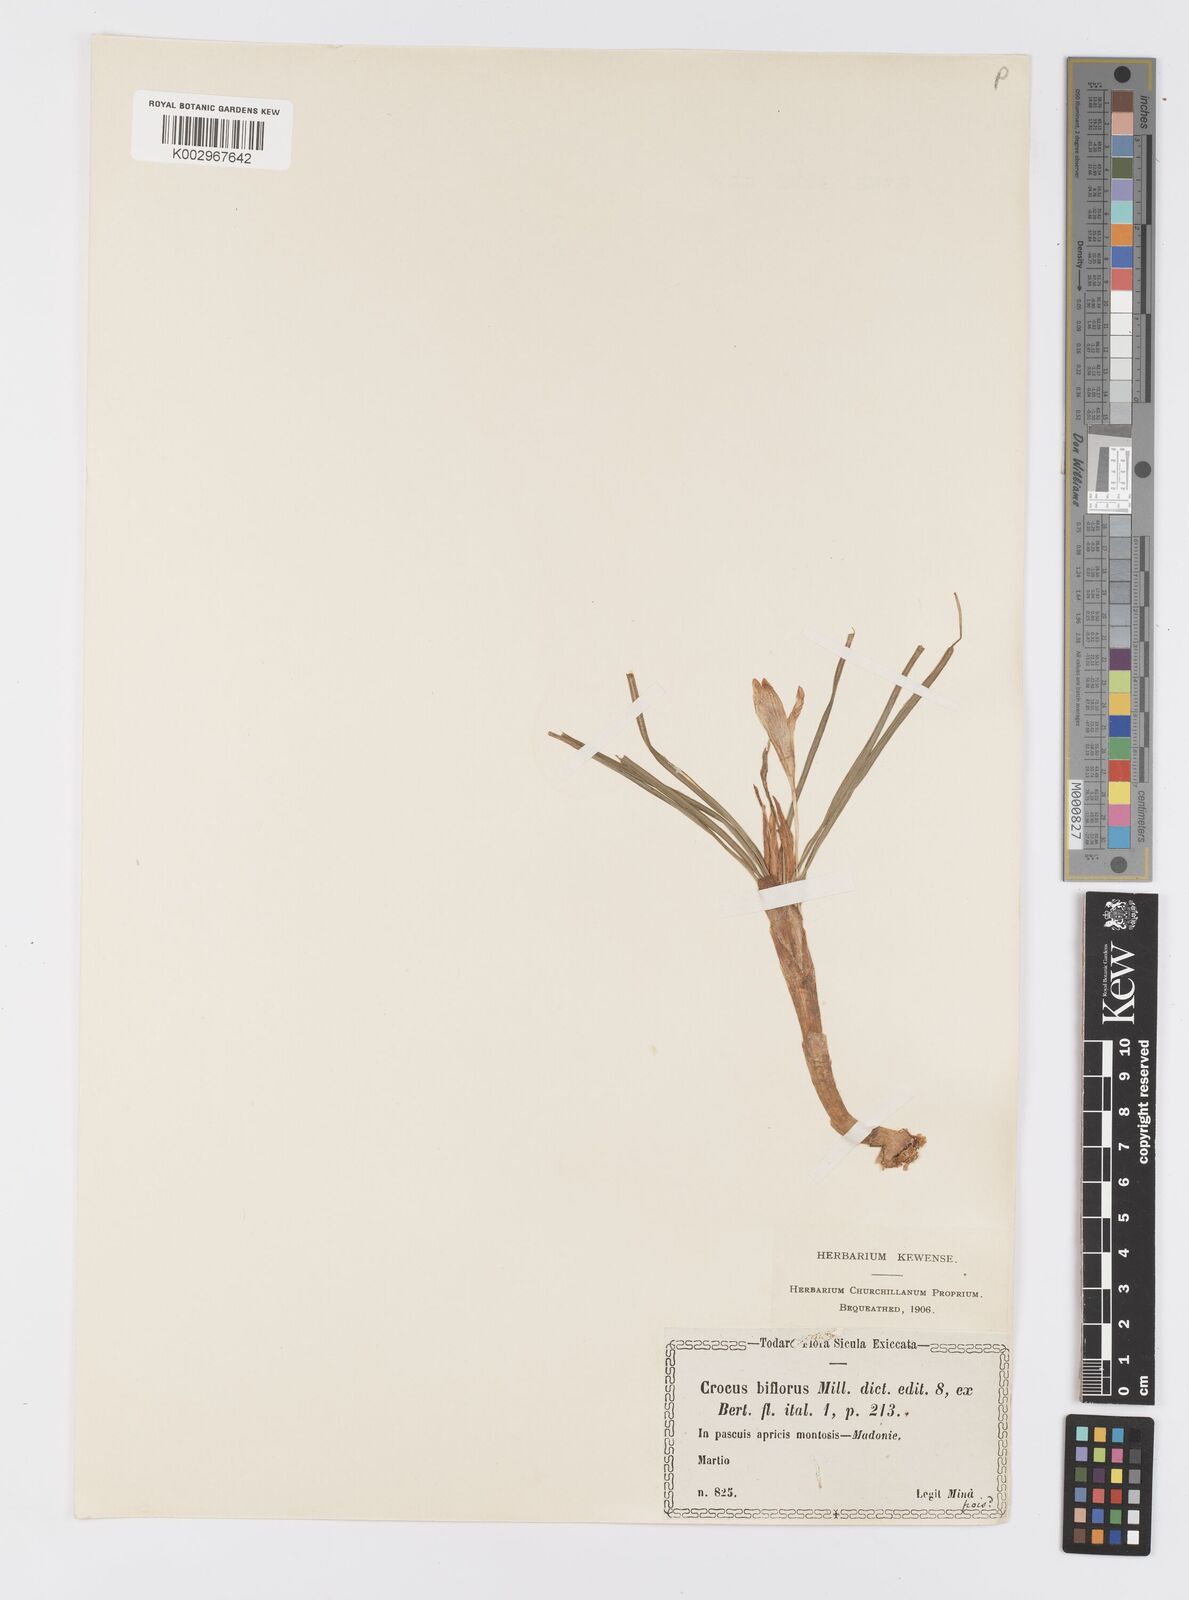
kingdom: Plantae
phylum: Tracheophyta
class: Liliopsida
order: Asparagales
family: Iridaceae
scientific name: Iridaceae
